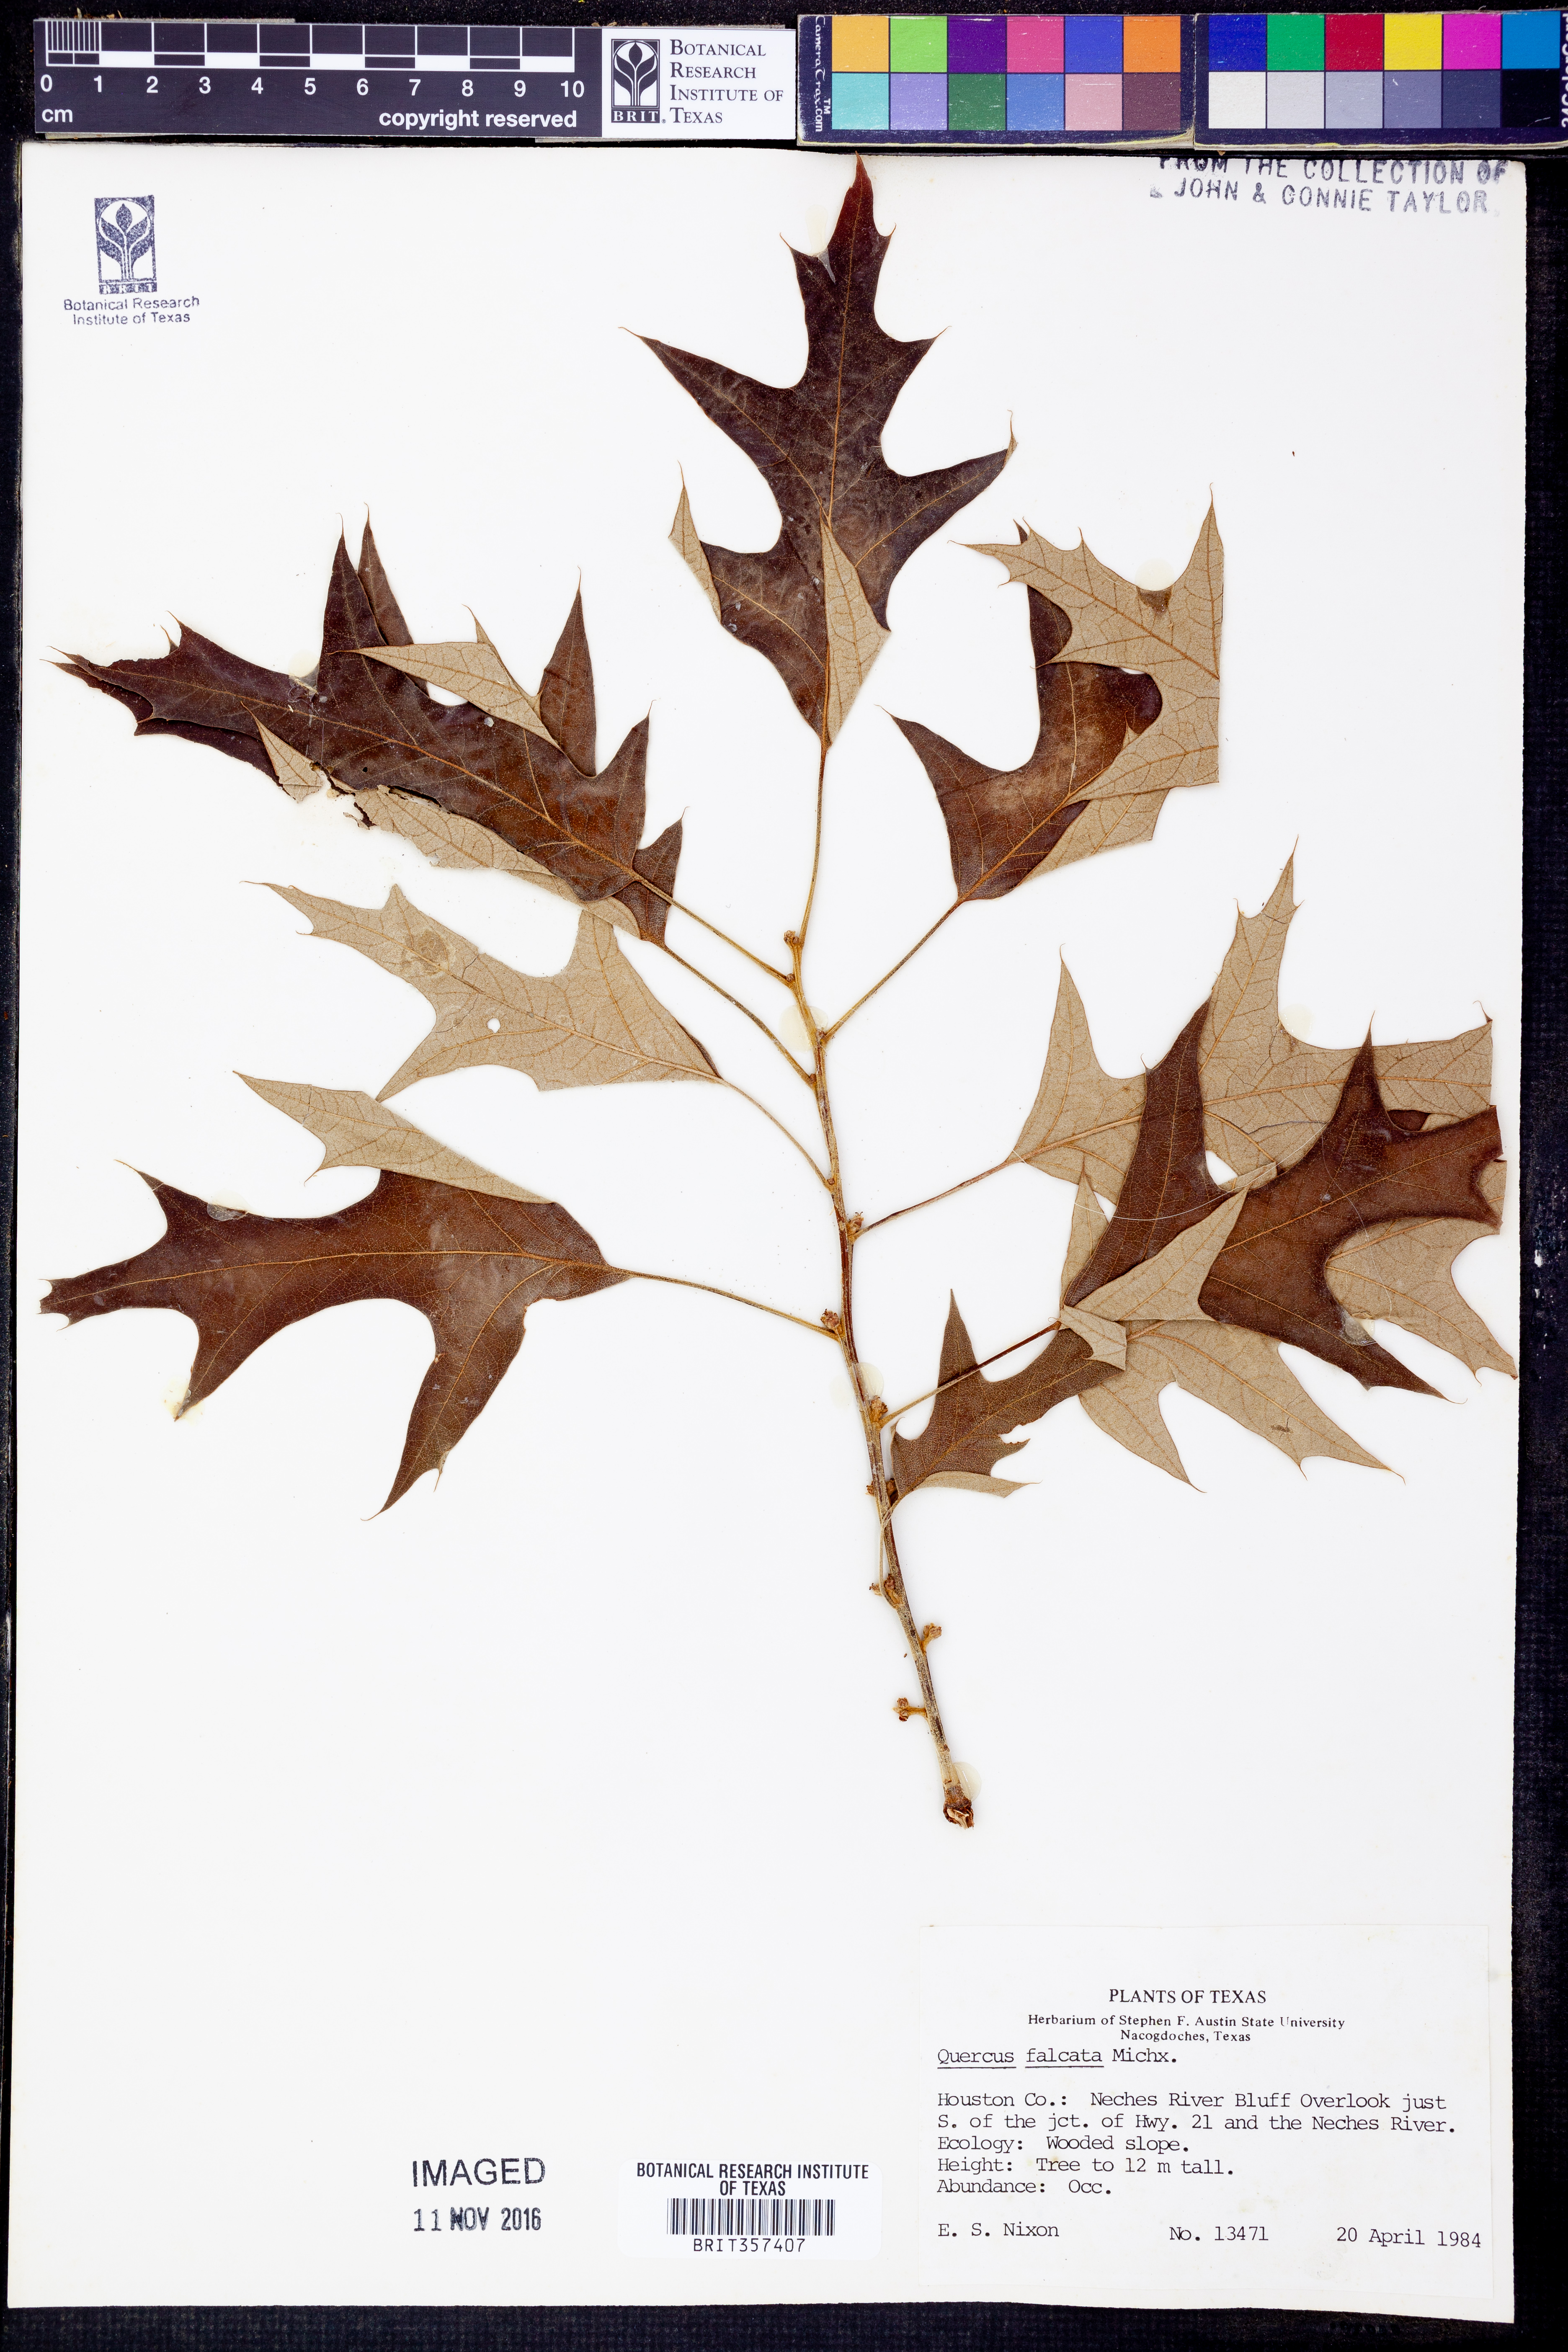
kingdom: Plantae
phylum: Tracheophyta
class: Magnoliopsida
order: Fagales
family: Fagaceae
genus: Quercus
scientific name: Quercus falcata
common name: Southern red oak
